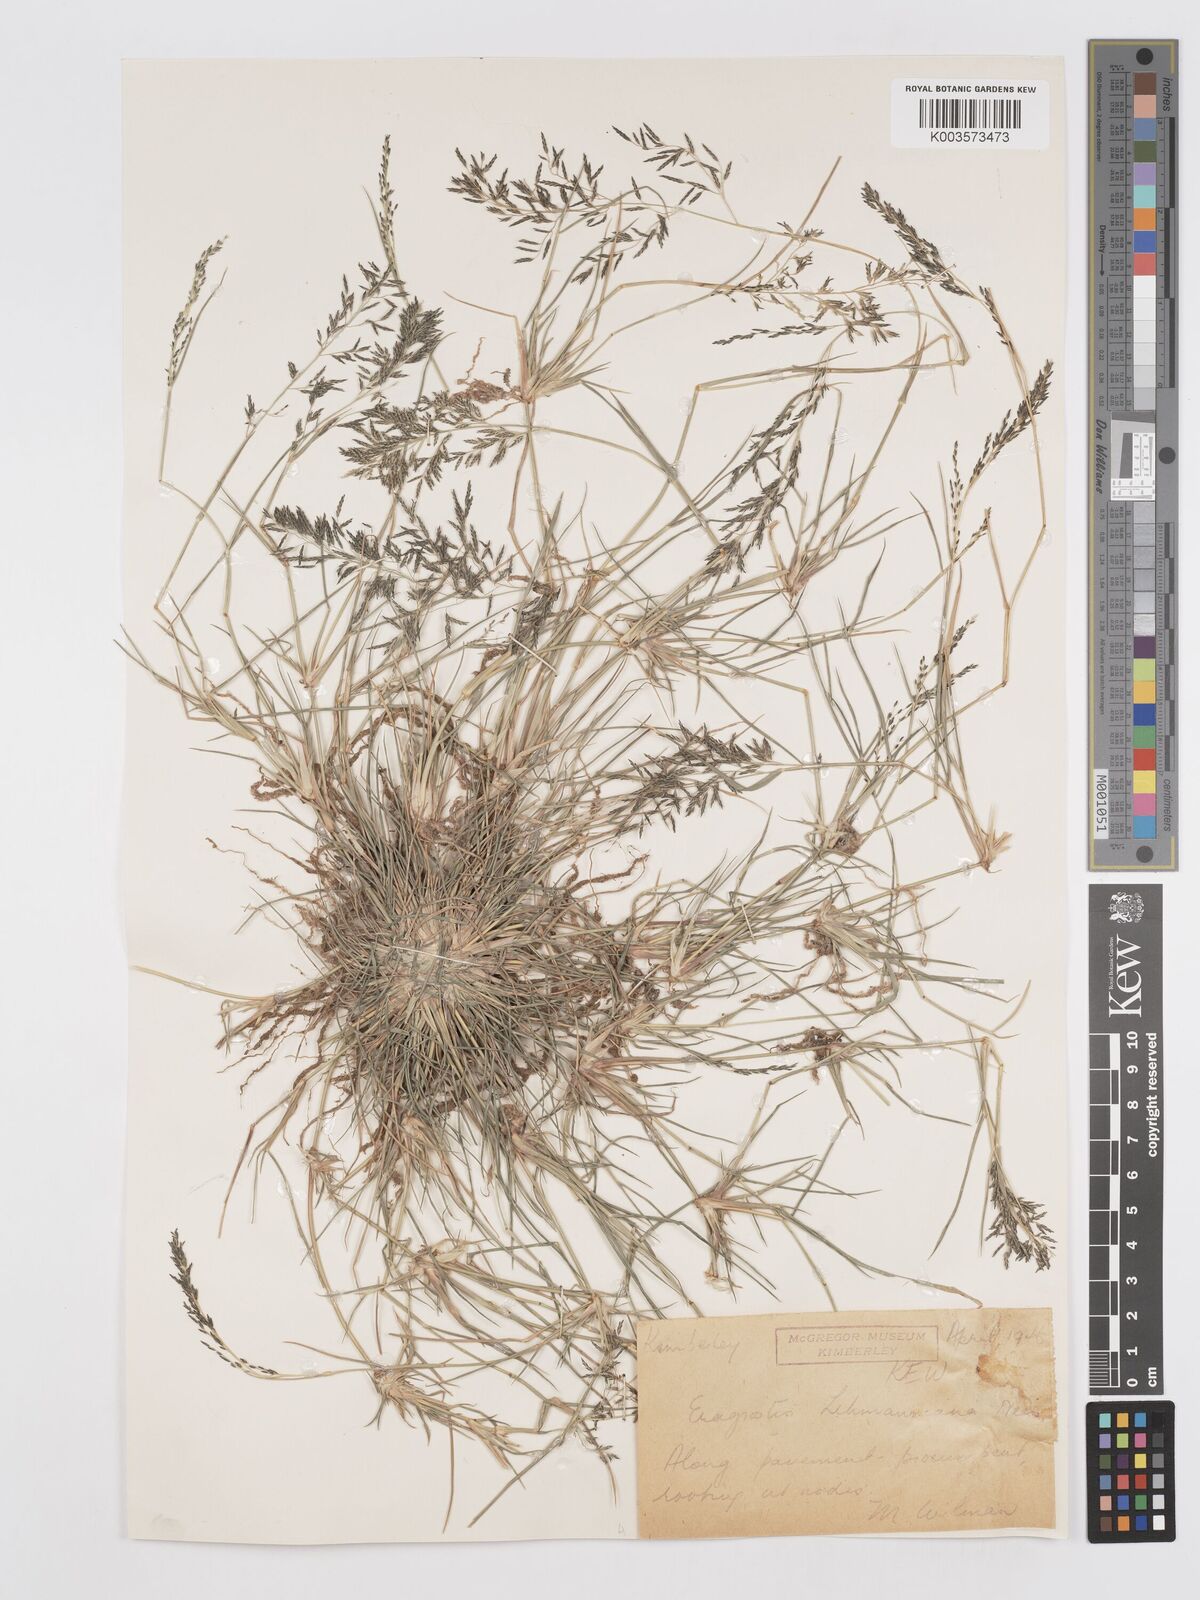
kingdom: Plantae
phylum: Tracheophyta
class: Liliopsida
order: Poales
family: Poaceae
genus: Eragrostis
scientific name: Eragrostis lehmanniana
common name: Lehmann lovegrass
